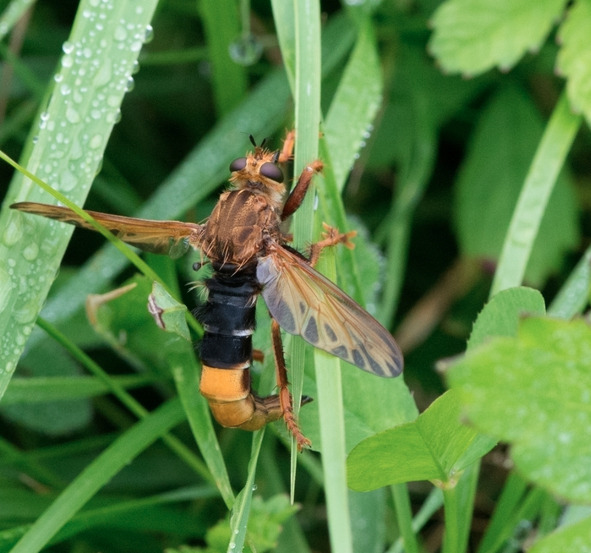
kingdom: Animalia
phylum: Arthropoda
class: Insecta
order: Diptera
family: Asilidae
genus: Asilus
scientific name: Asilus crabroniformis
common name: Stor gødningsrovflue
